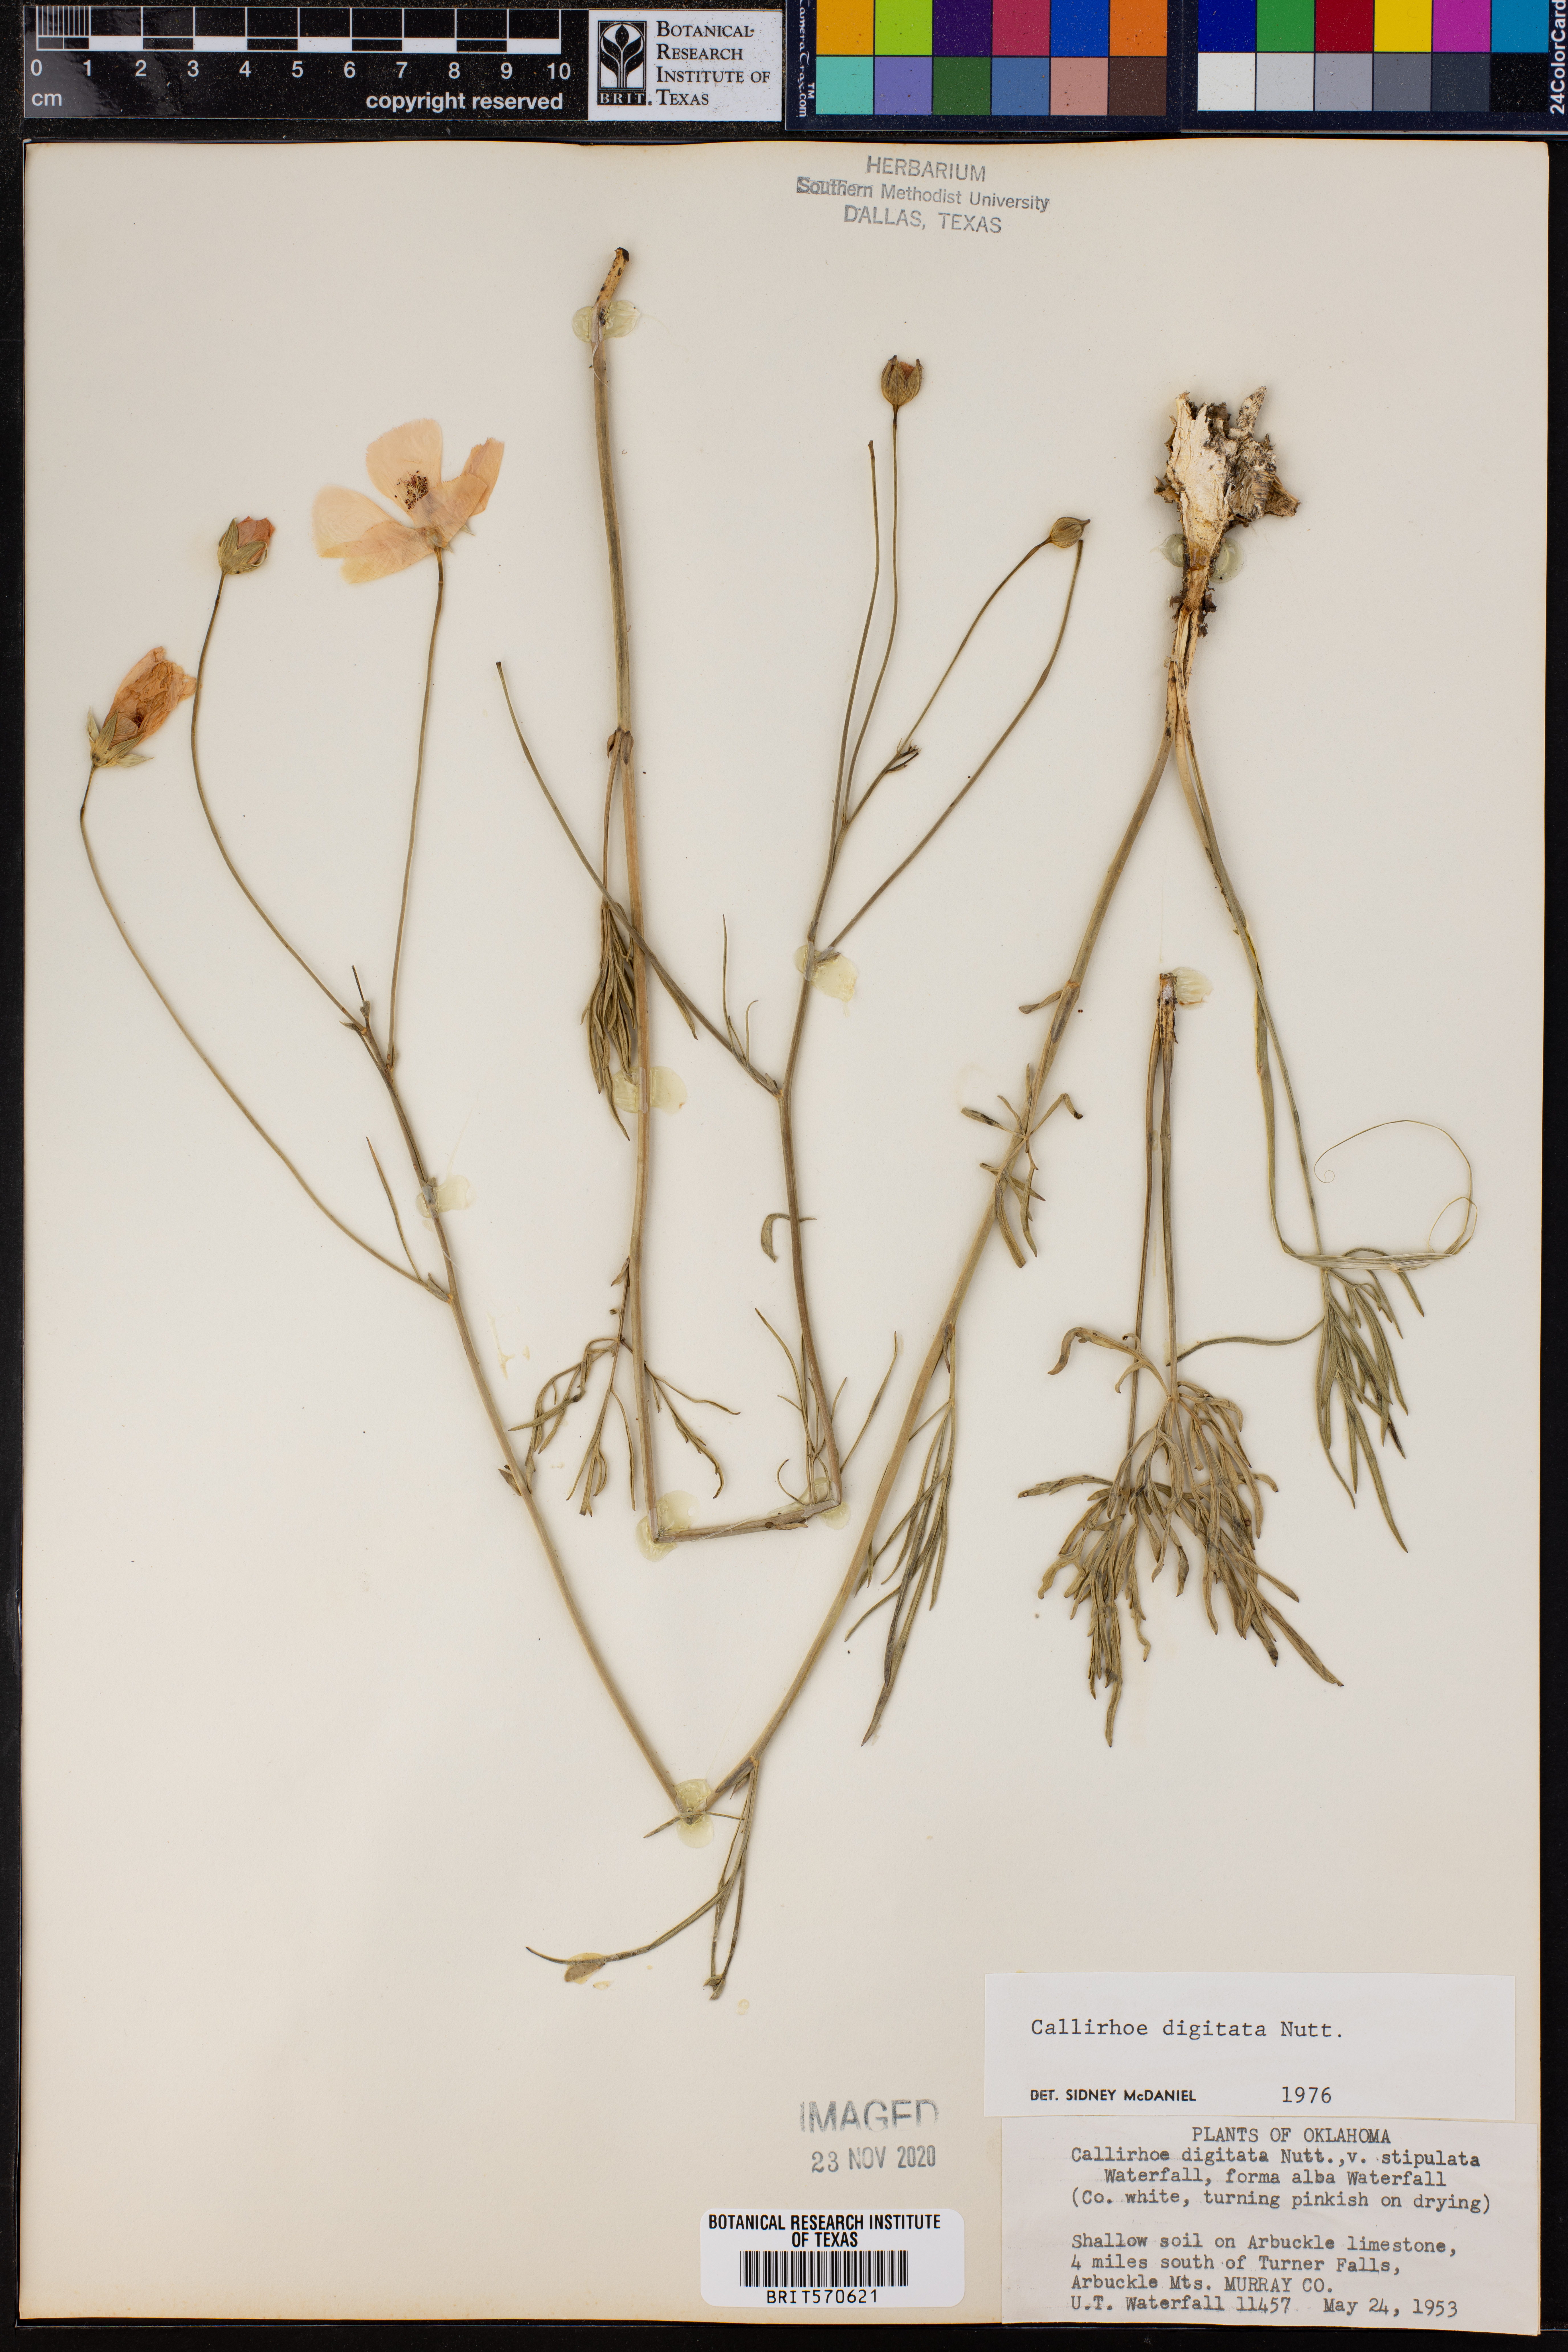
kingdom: Plantae
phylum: Tracheophyta
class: Magnoliopsida
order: Malvales
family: Malvaceae
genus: Callirhoe
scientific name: Callirhoe digitata
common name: Finger poppy-mallow
